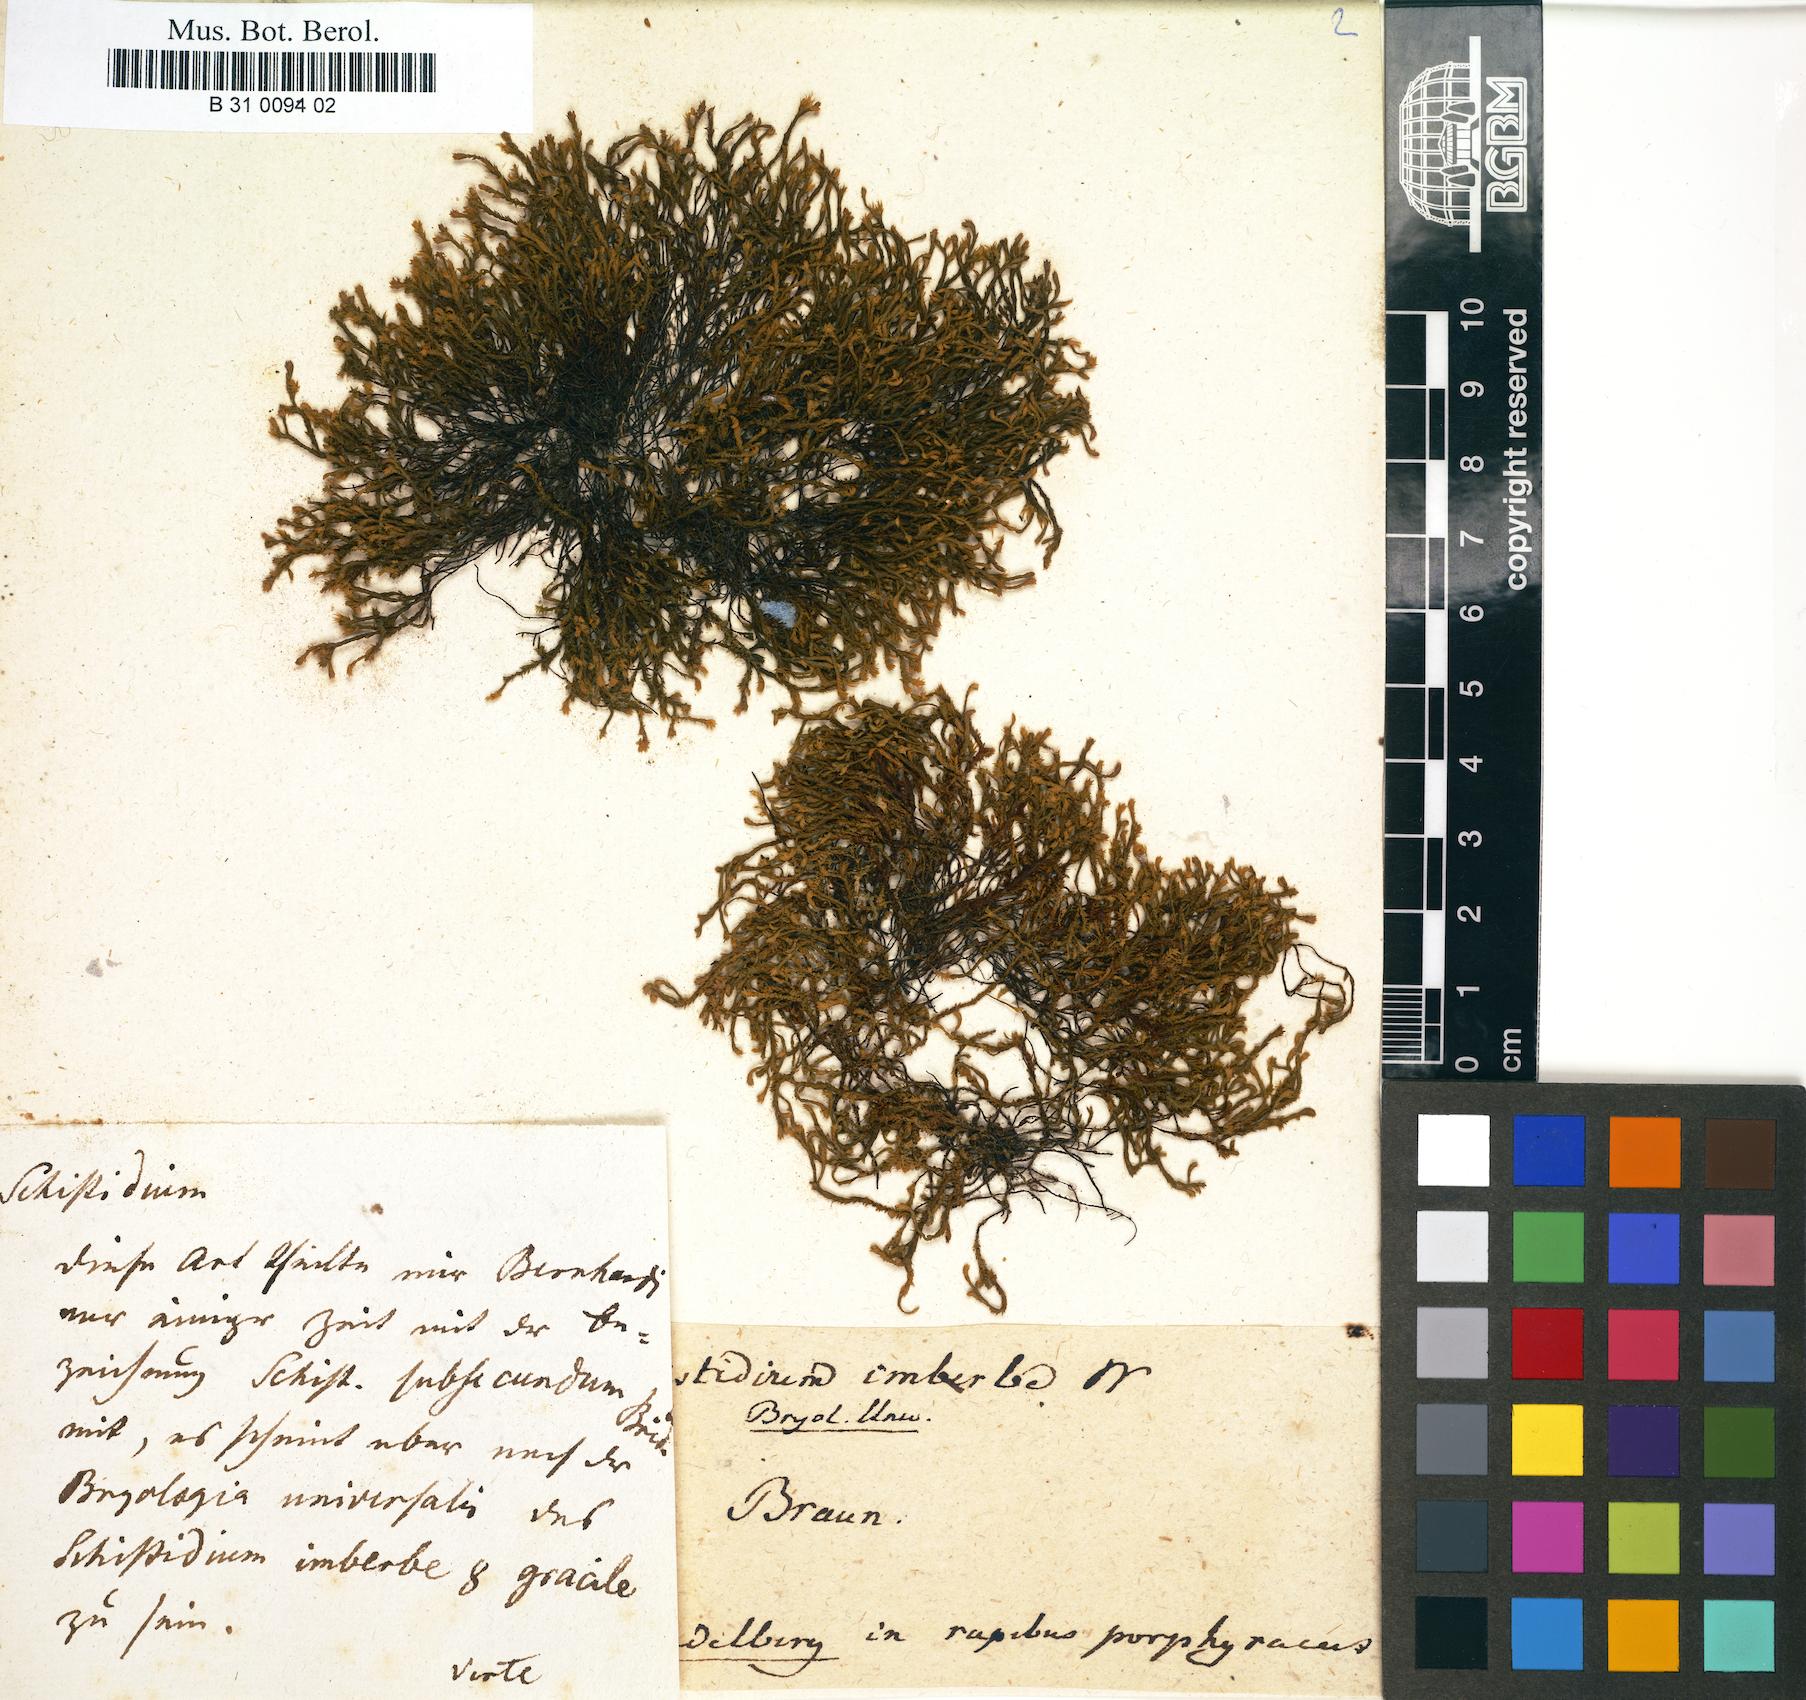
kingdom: Plantae
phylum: Bryophyta
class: Bryopsida
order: Hedwigiales
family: Hedwigiaceae
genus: Hedwigidium
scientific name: Hedwigidium imberbe
